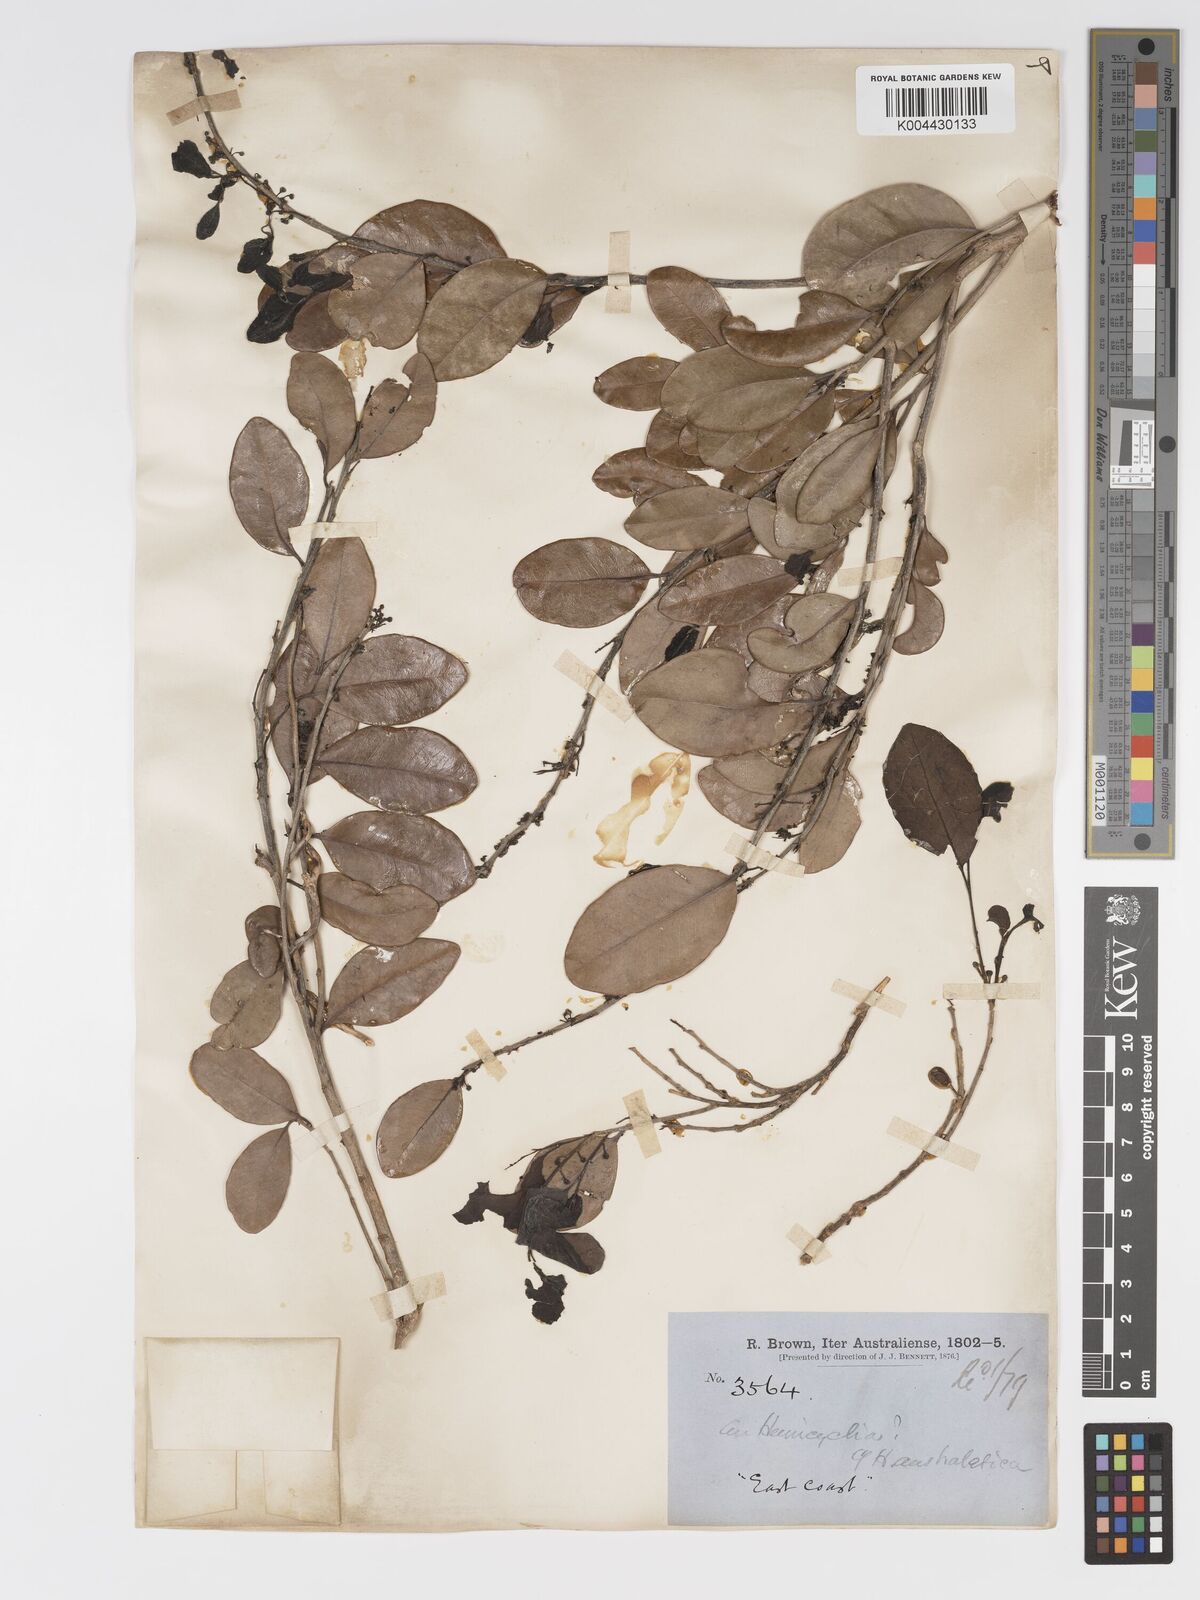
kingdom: Plantae
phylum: Tracheophyta
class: Magnoliopsida
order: Malpighiales
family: Putranjivaceae
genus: Drypetes
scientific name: Drypetes deplanchei
